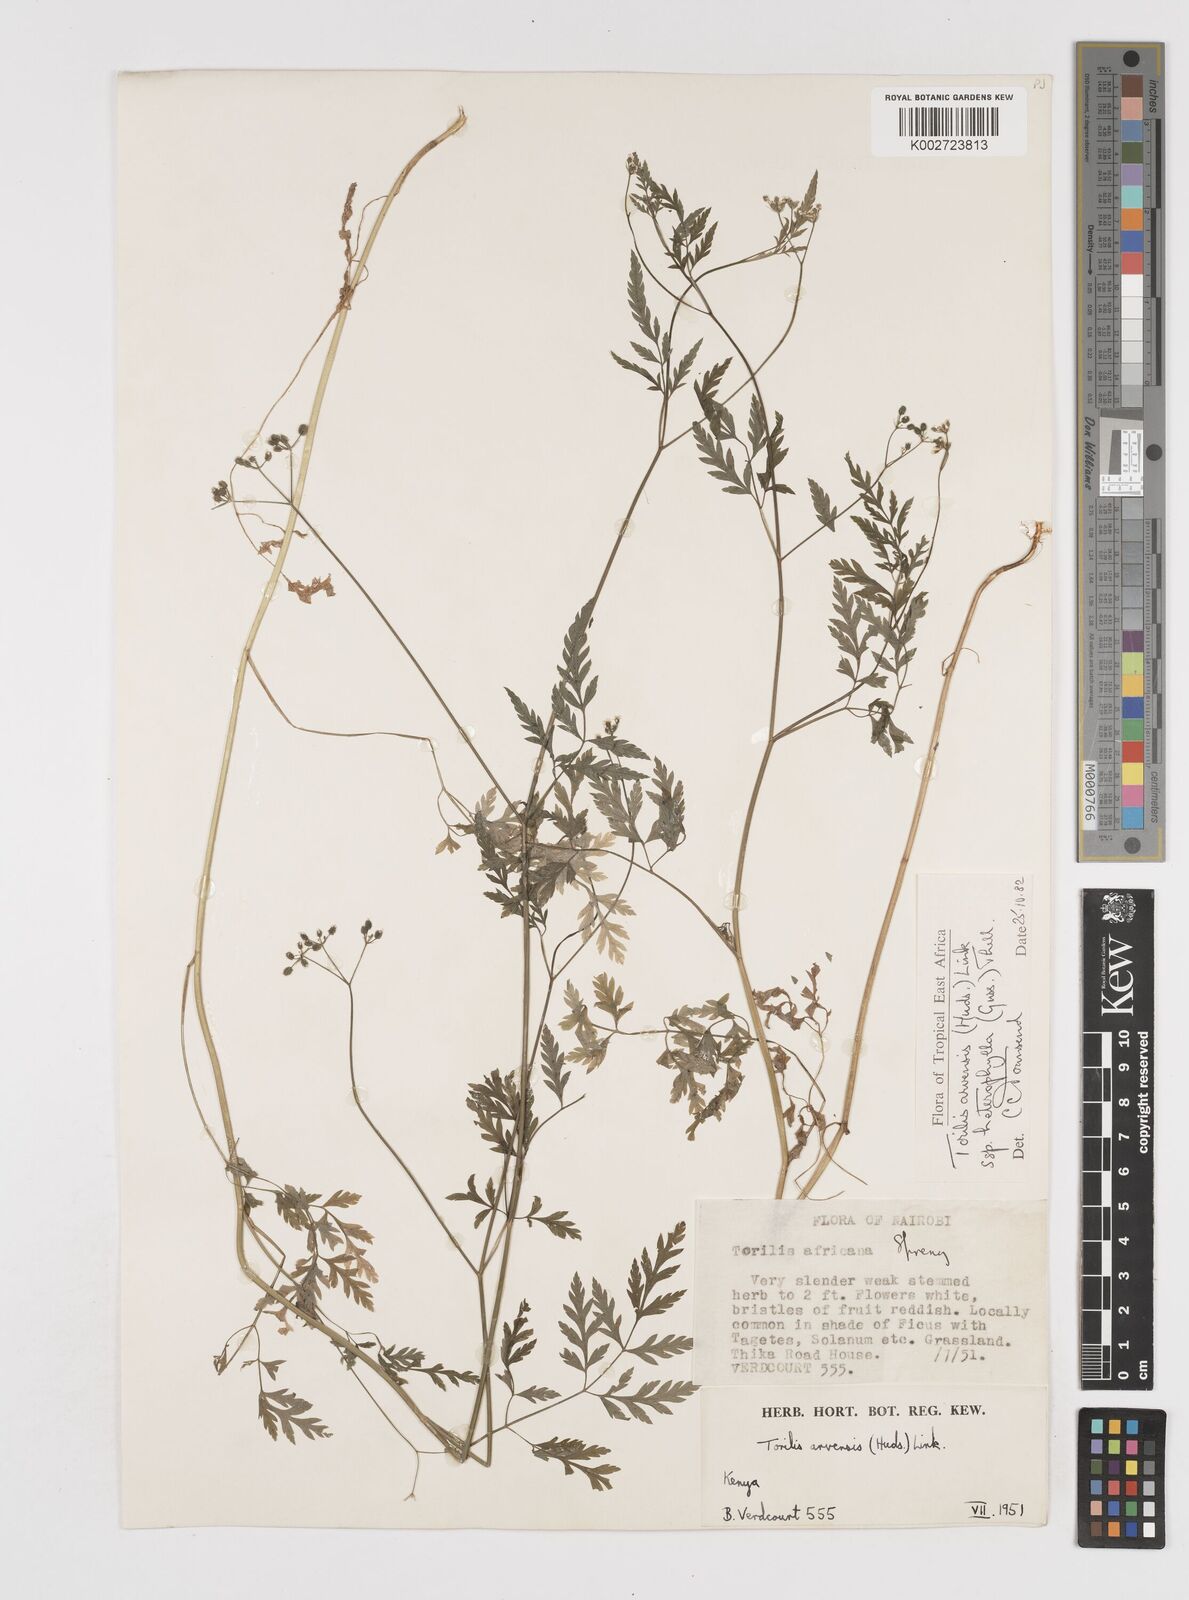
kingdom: Plantae
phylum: Tracheophyta
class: Magnoliopsida
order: Apiales
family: Apiaceae
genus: Torilis
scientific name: Torilis arvensis
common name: Spreading hedge-parsley
